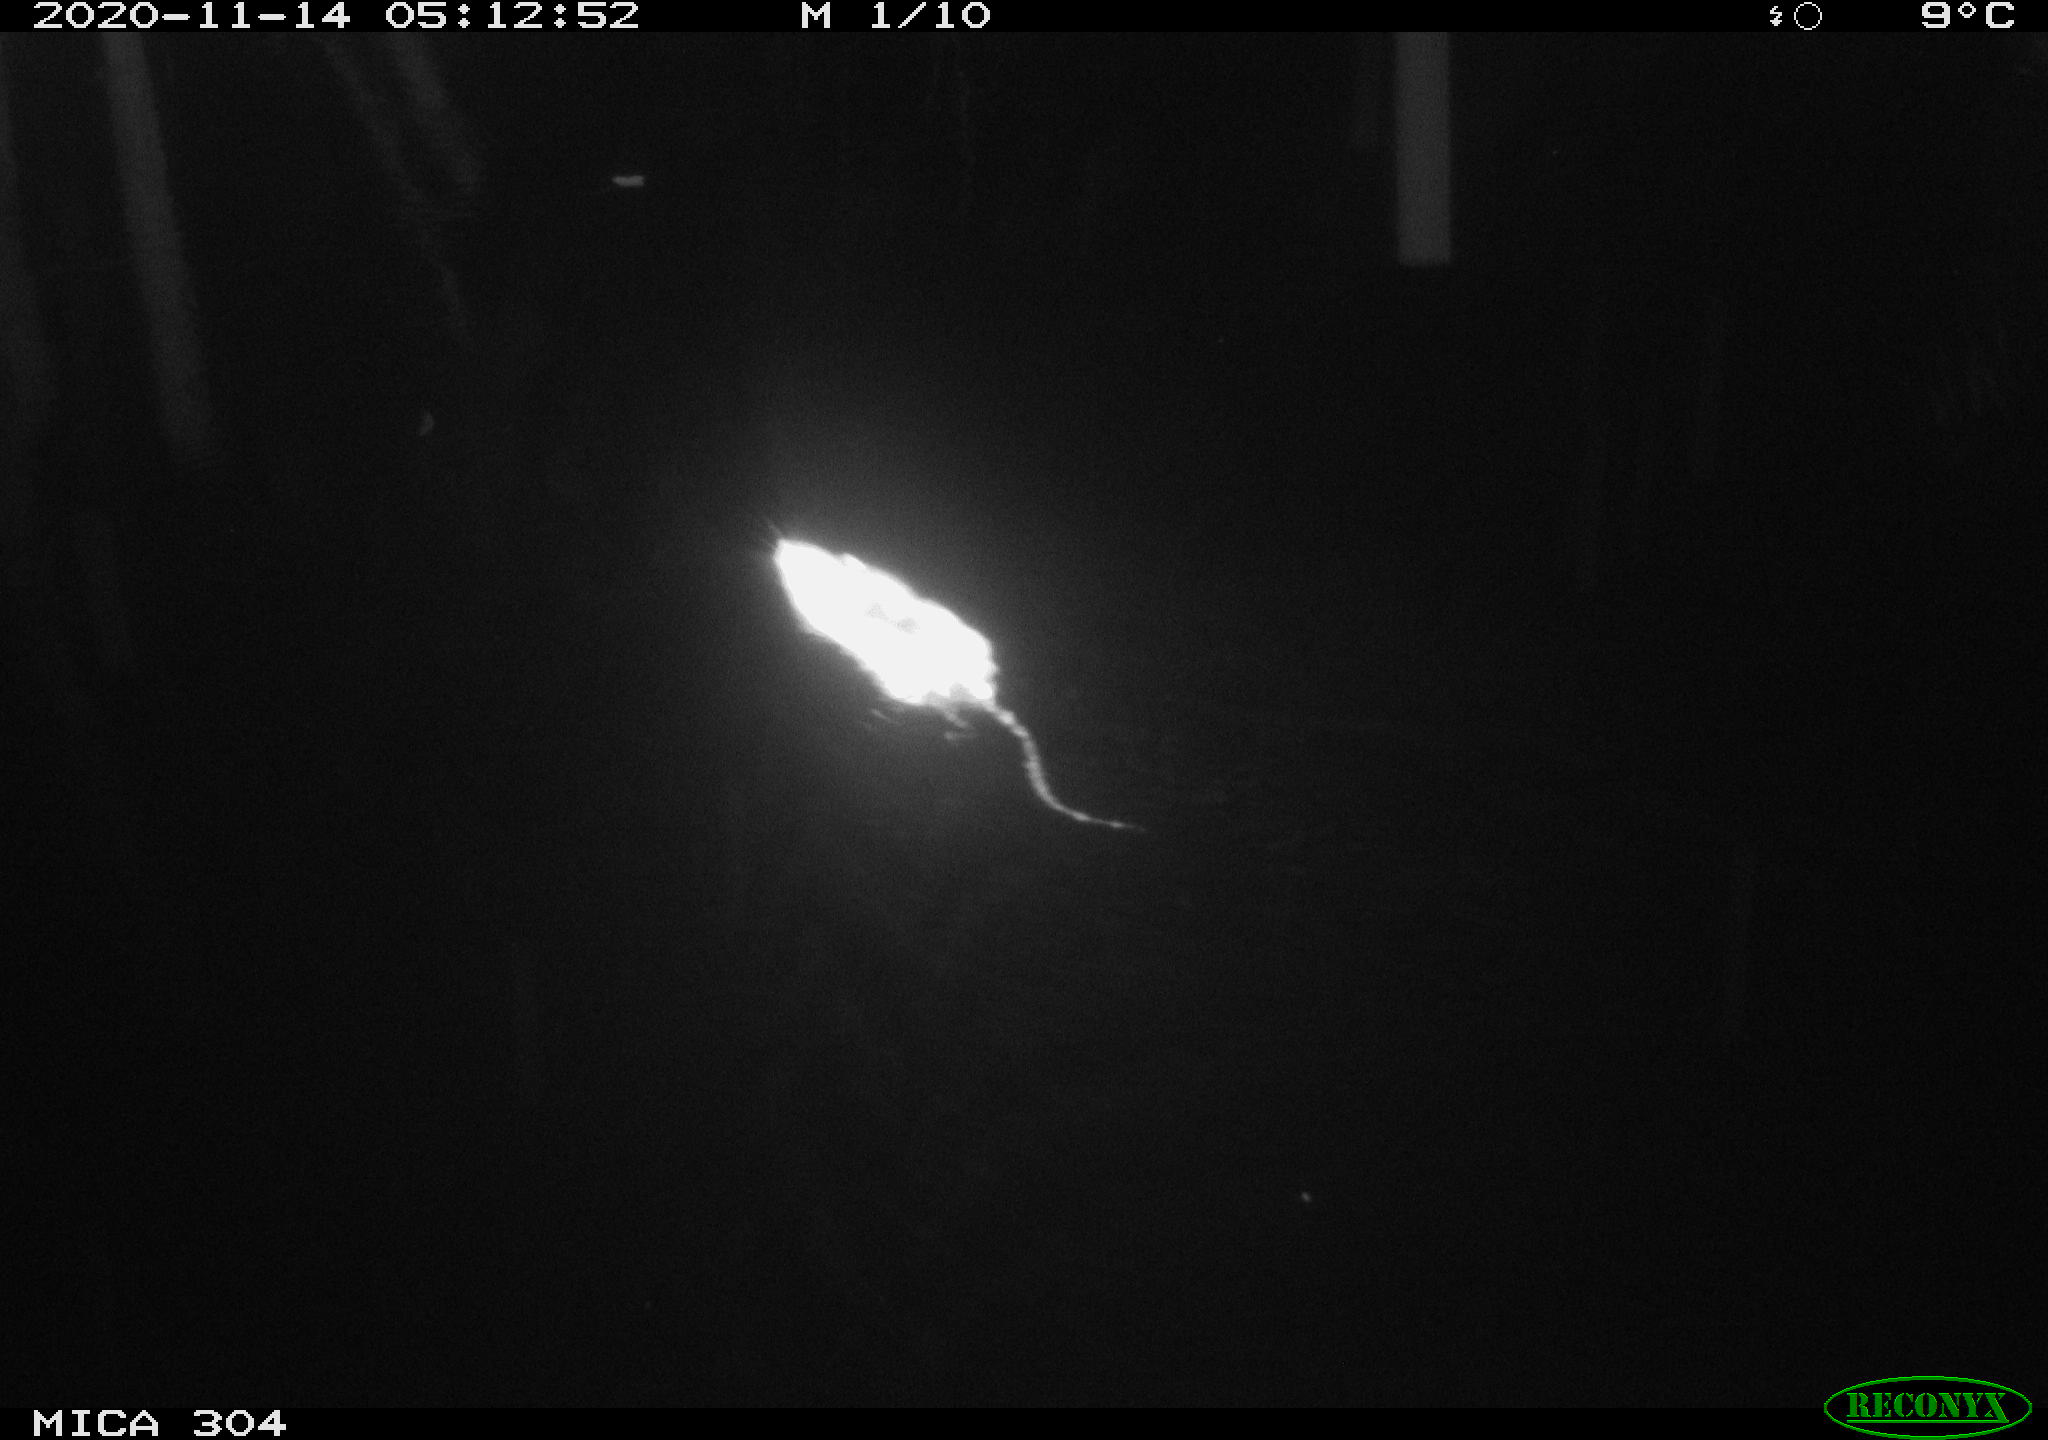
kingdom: Animalia
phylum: Chordata
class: Mammalia
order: Rodentia
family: Muridae
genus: Rattus
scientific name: Rattus norvegicus
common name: Brown rat
